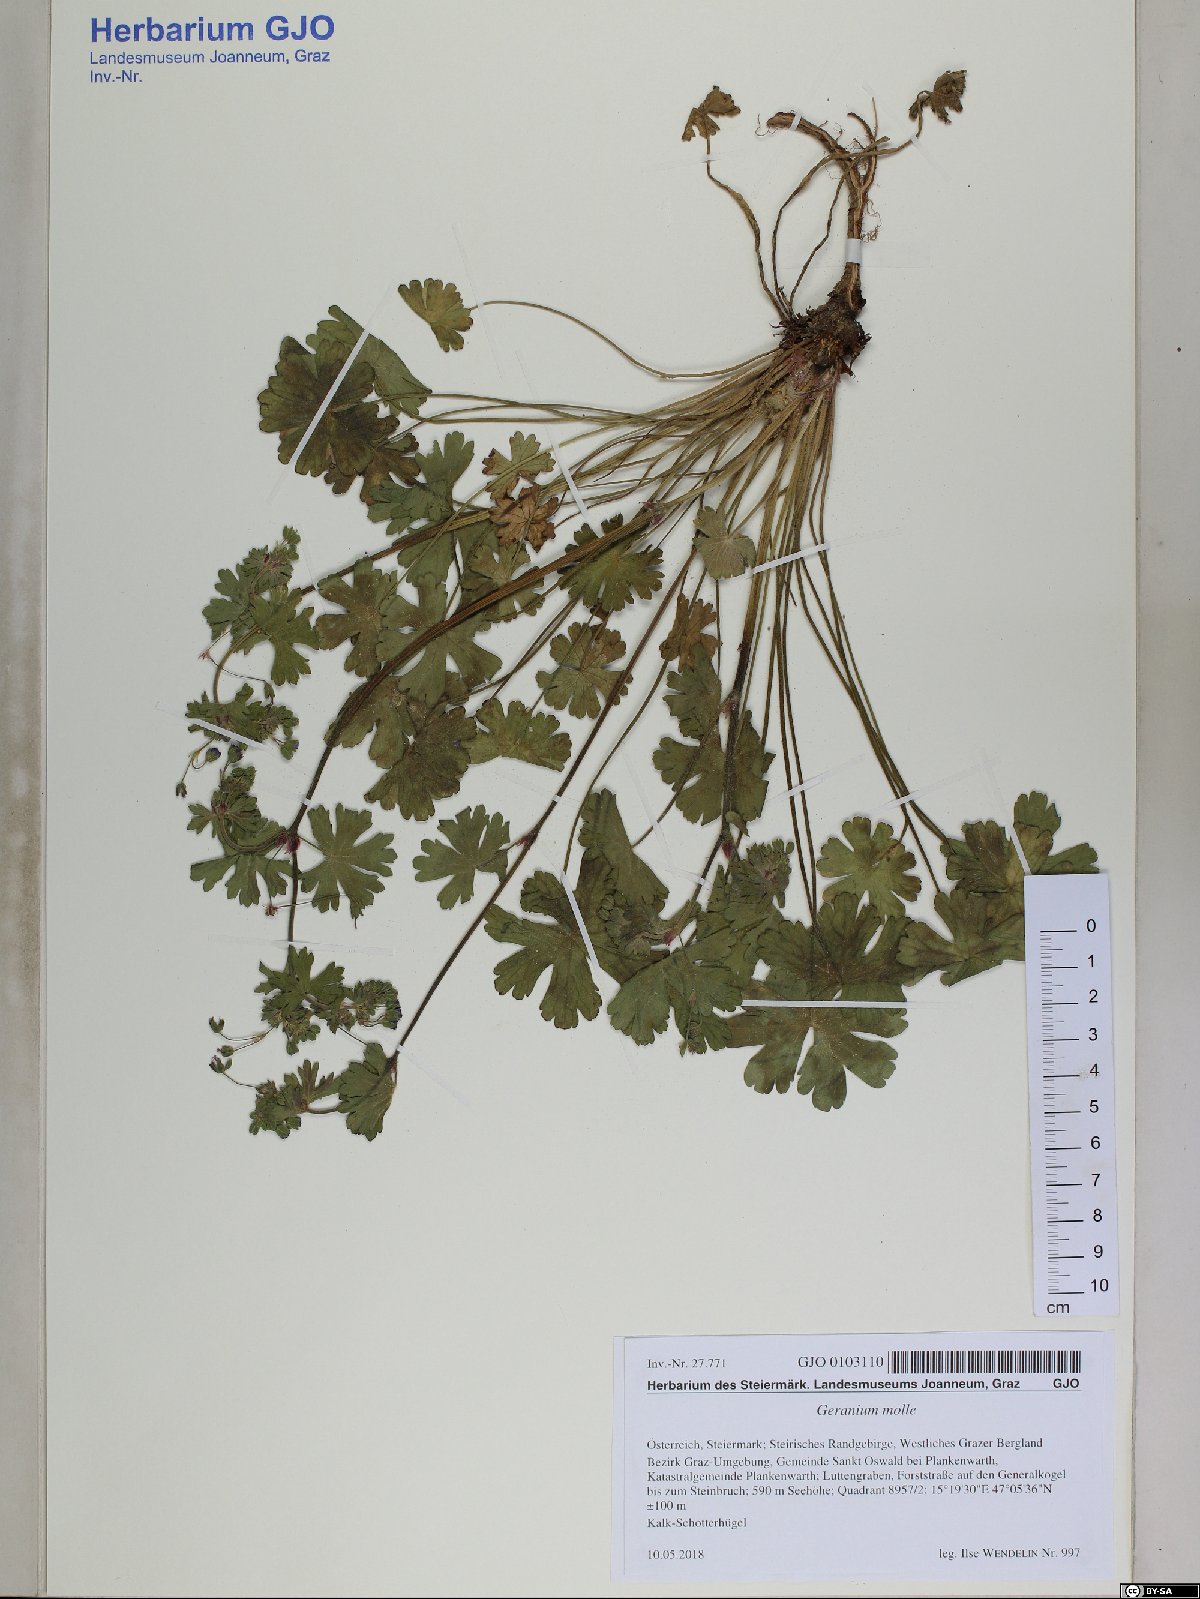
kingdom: Plantae
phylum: Tracheophyta
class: Magnoliopsida
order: Geraniales
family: Geraniaceae
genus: Geranium
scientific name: Geranium molle
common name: Dove's-foot crane's-bill
